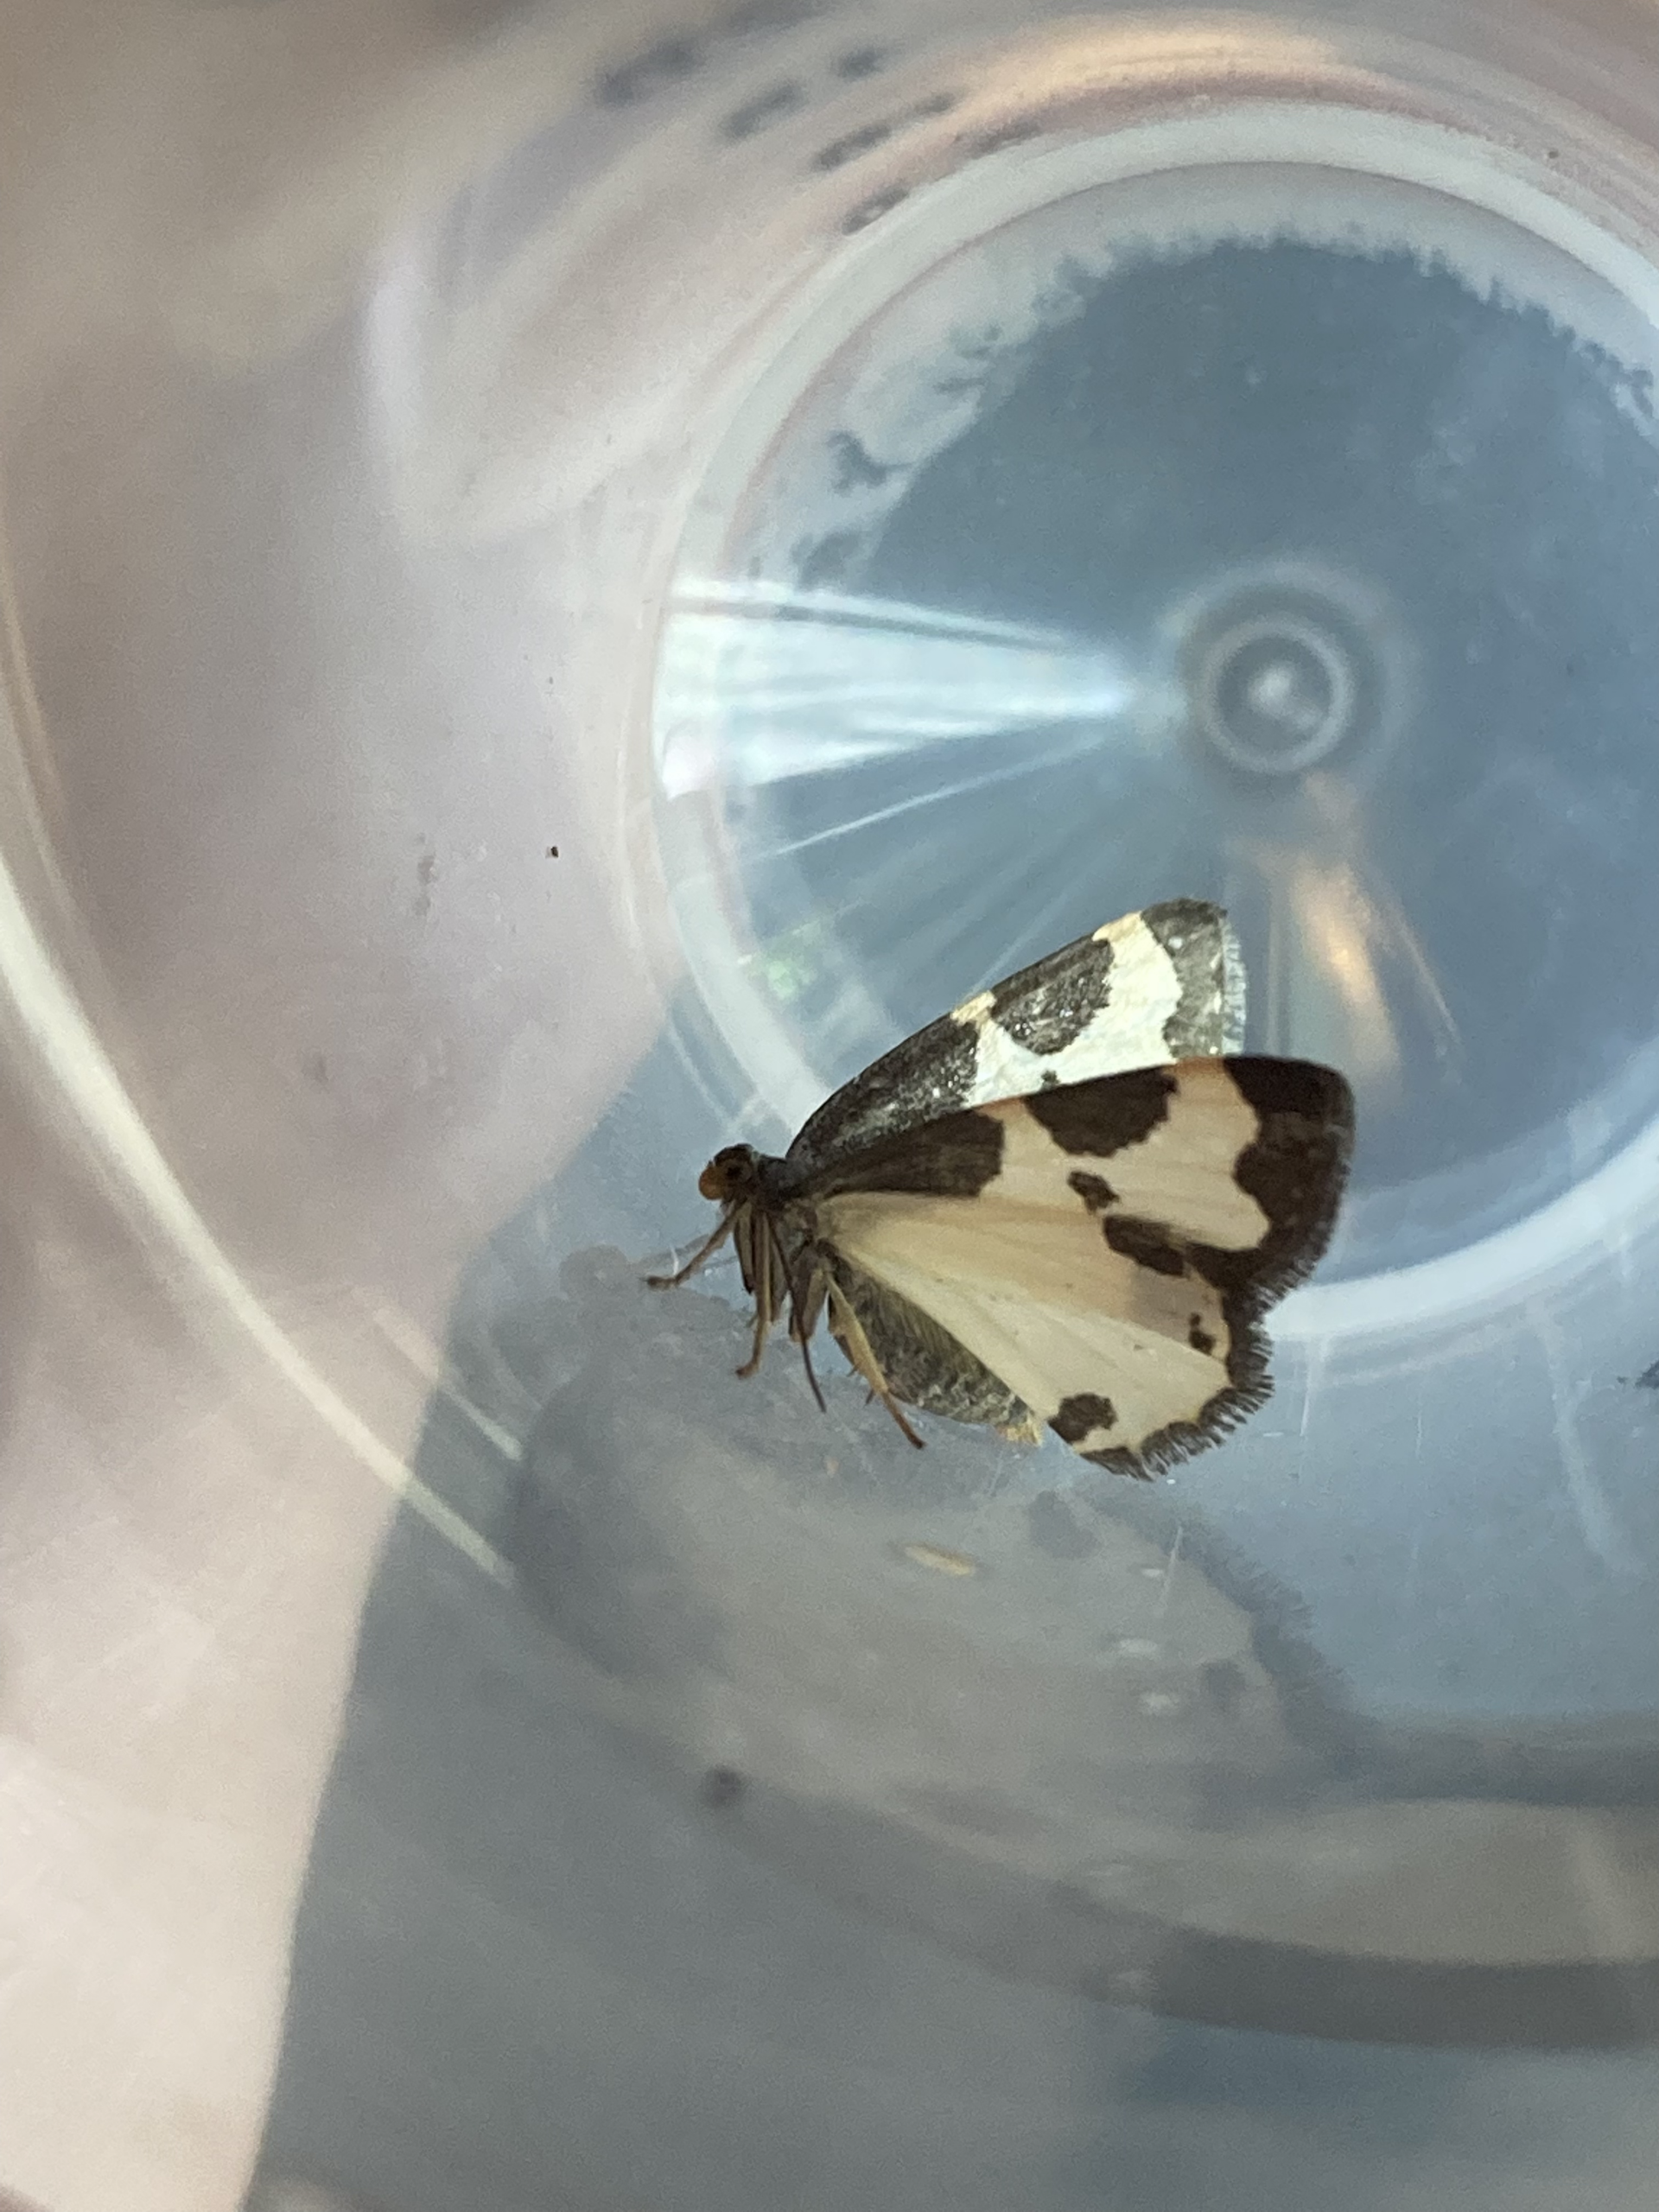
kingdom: Animalia
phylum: Arthropoda
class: Insecta
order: Lepidoptera
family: Geometridae
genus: Lomaspilis
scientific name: Lomaspilis marginata
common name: Sortrandet måler
